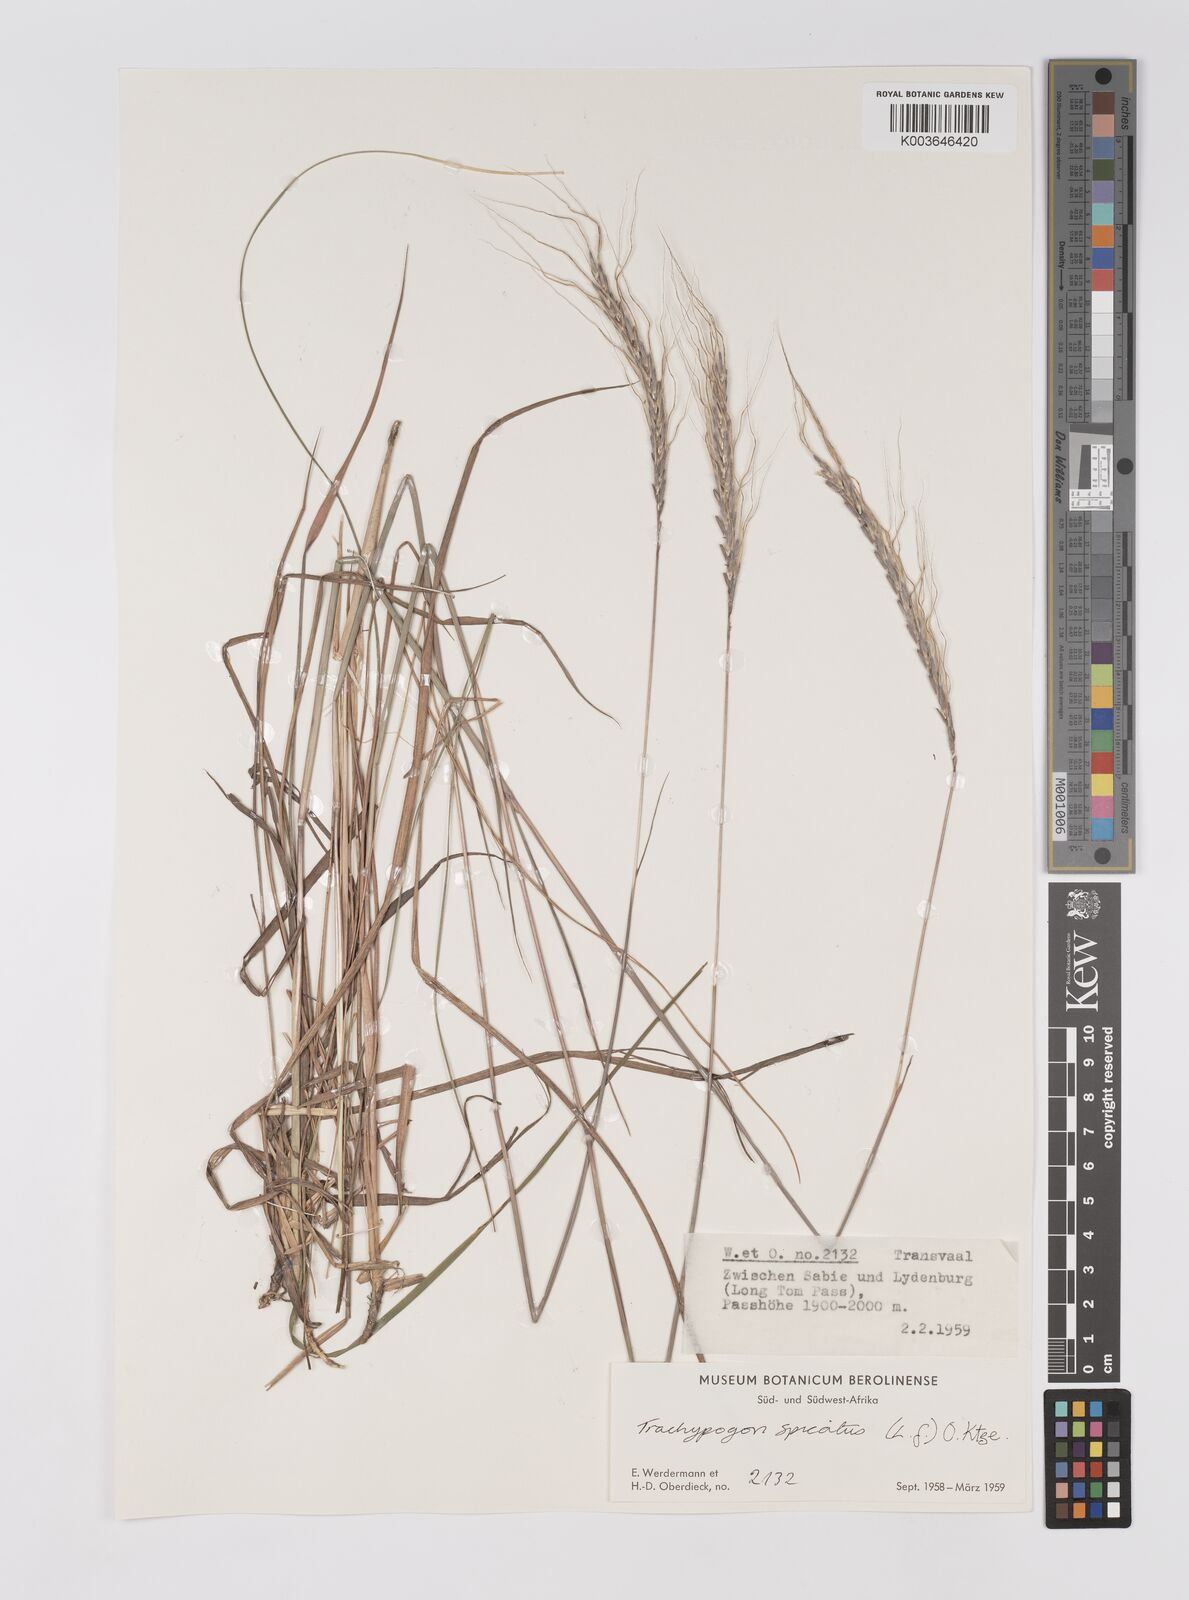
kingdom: Plantae
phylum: Tracheophyta
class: Liliopsida
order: Poales
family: Poaceae
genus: Trachypogon
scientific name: Trachypogon spicatus
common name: Crinkle-awn
